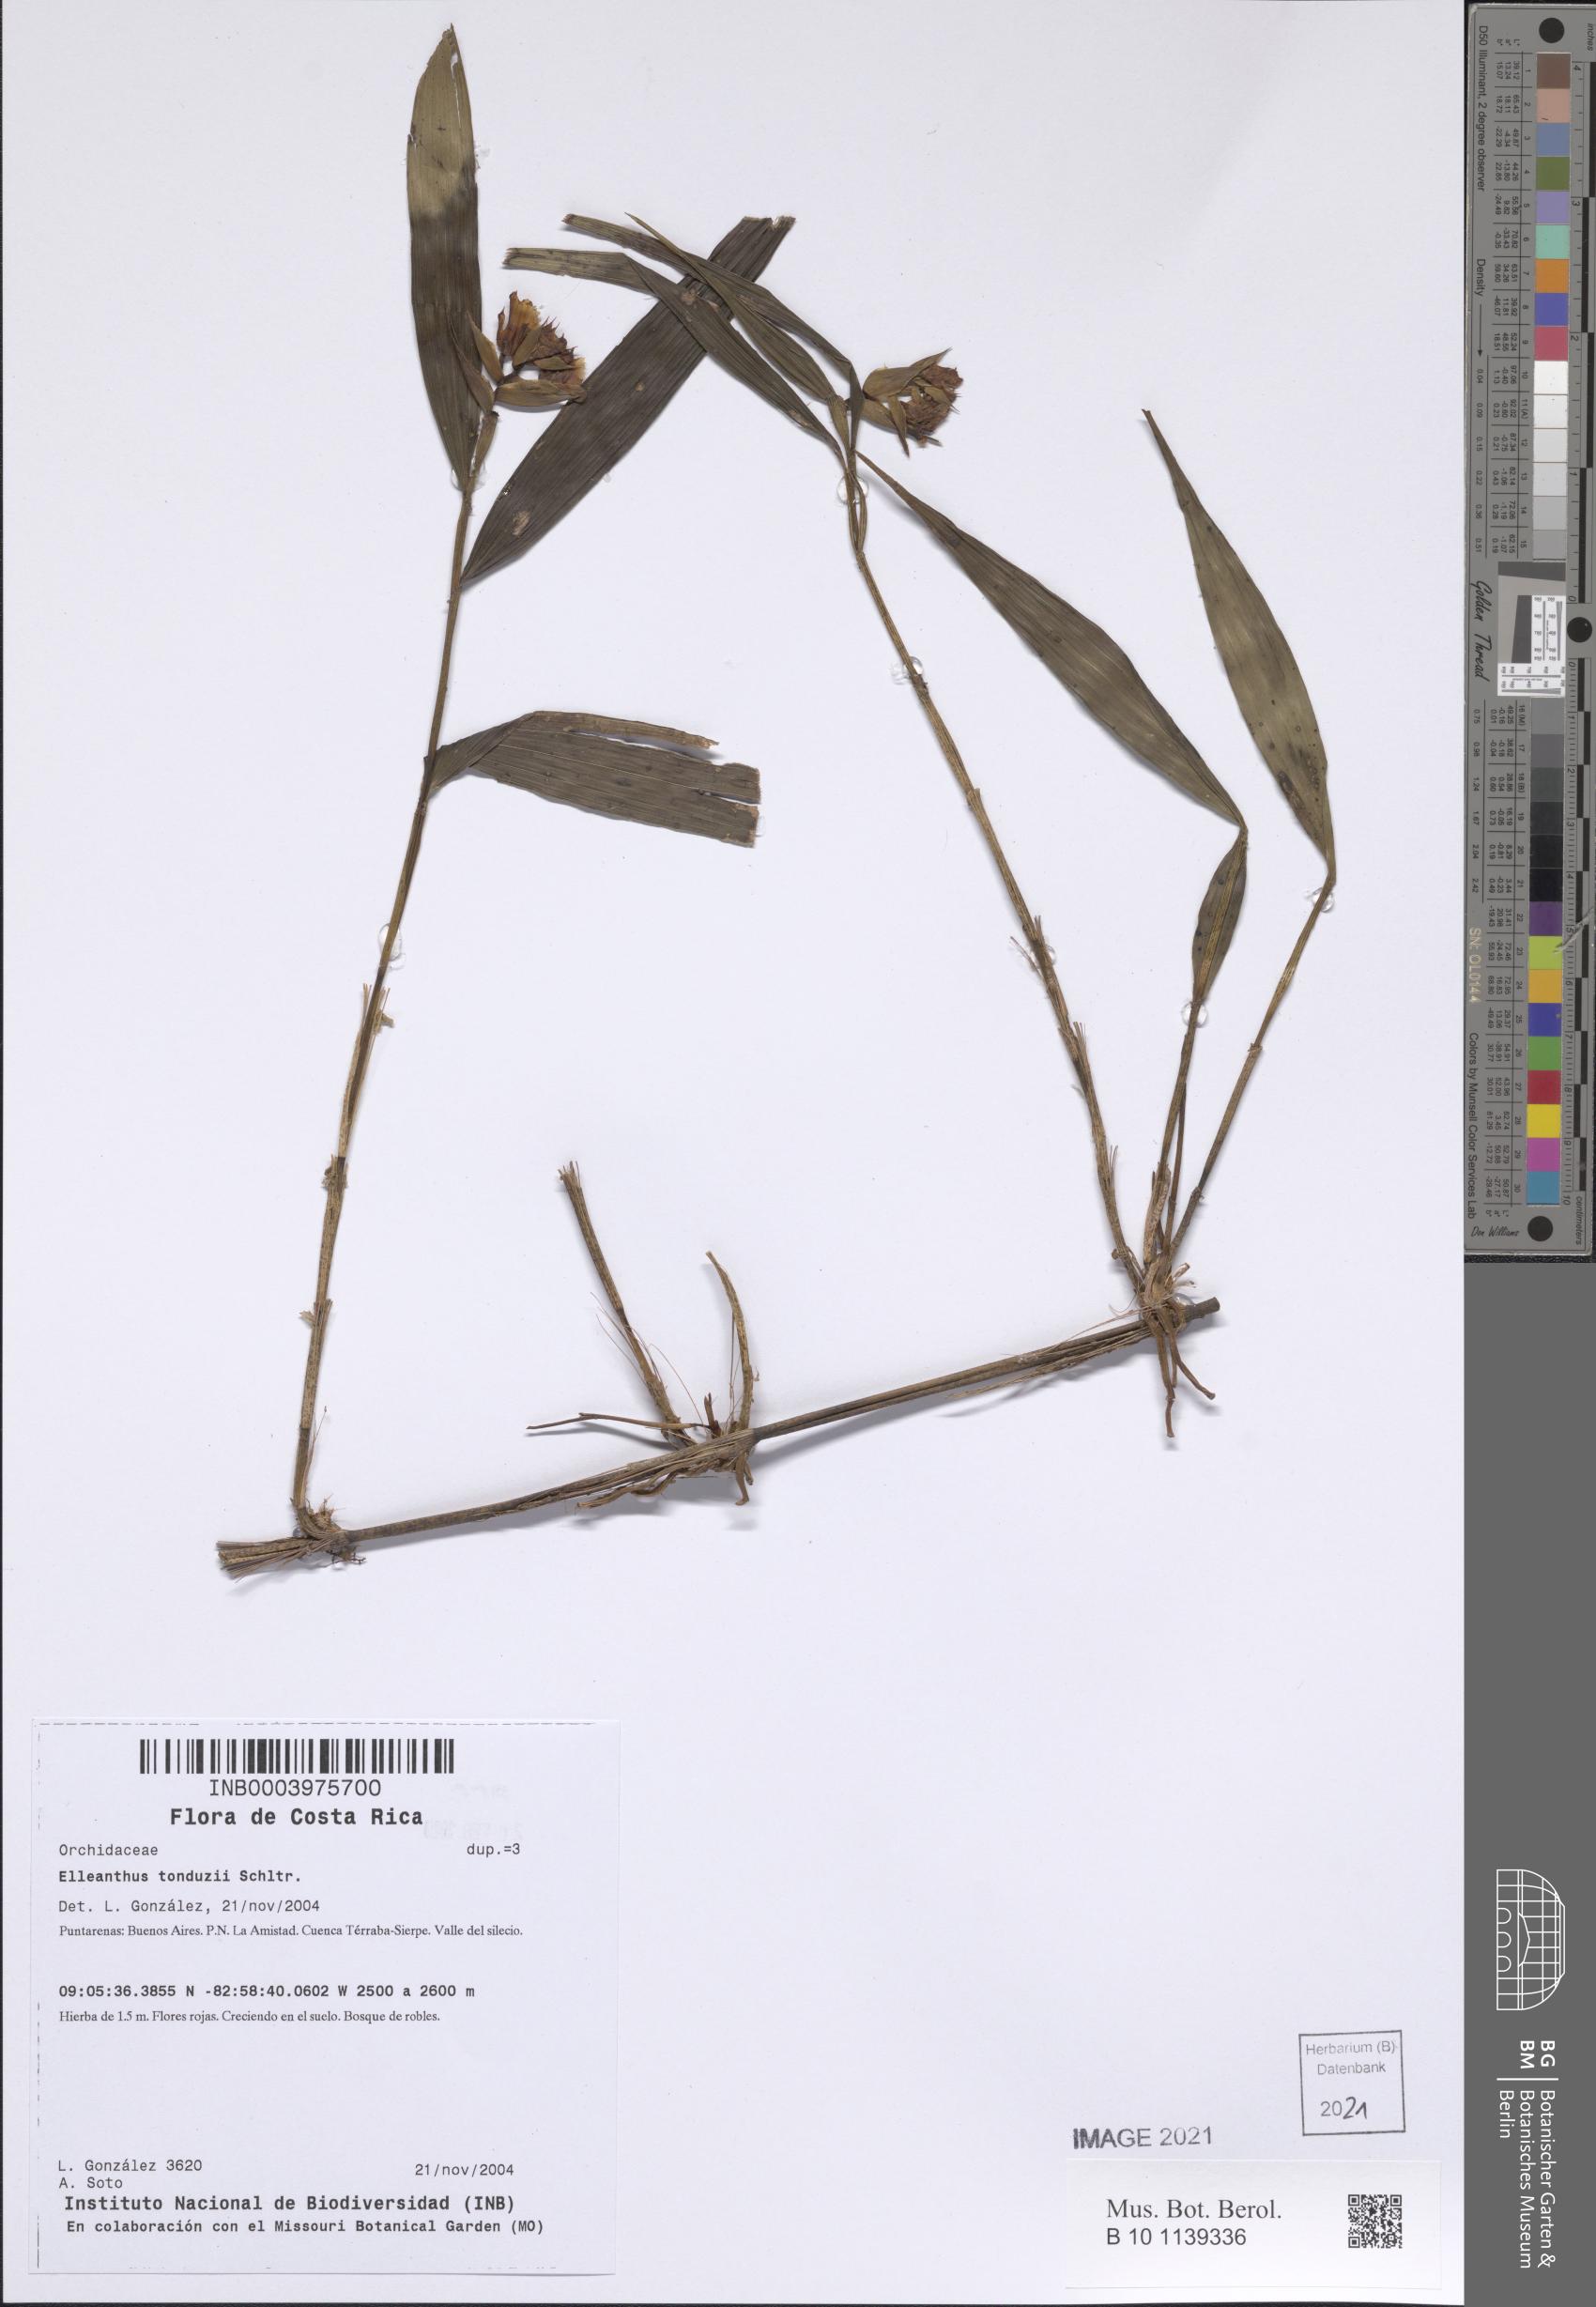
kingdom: Plantae
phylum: Tracheophyta
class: Liliopsida
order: Asparagales
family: Orchidaceae
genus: Elleanthus
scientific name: Elleanthus tonduzii
